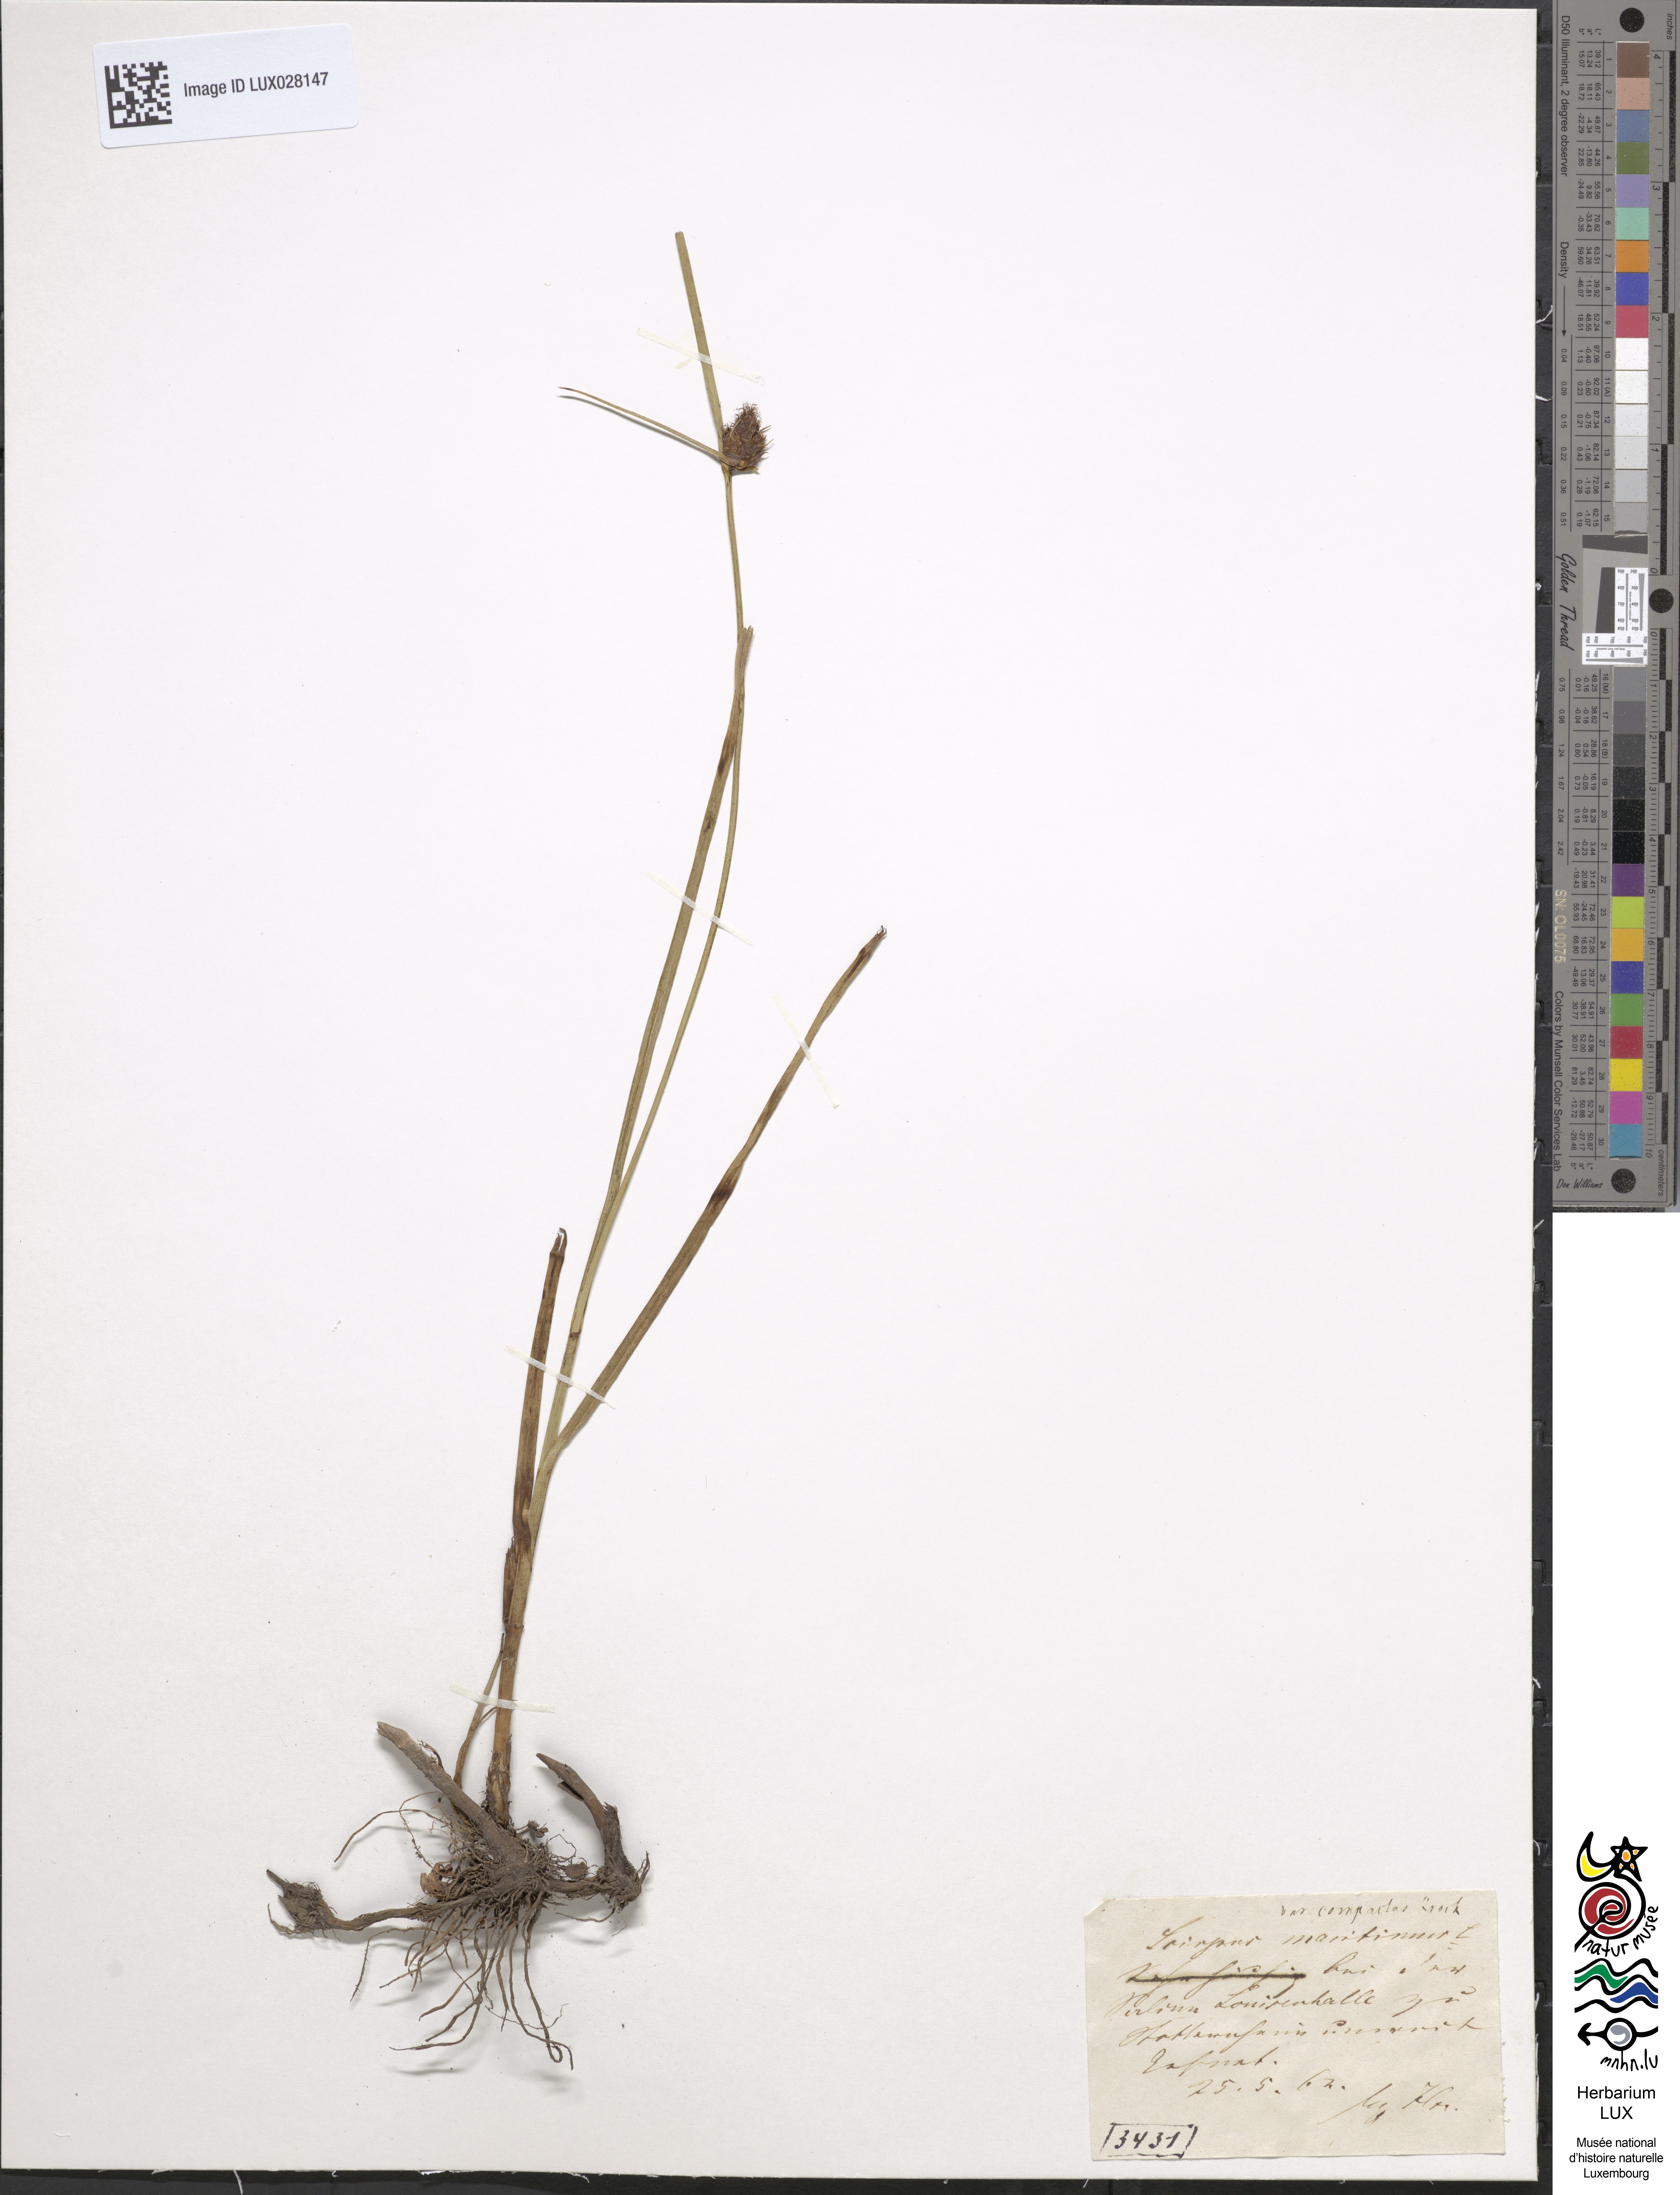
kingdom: Plantae
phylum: Tracheophyta
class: Liliopsida
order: Poales
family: Cyperaceae
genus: Bolboschoenus
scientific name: Bolboschoenus maritimus
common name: Sea club-rush
